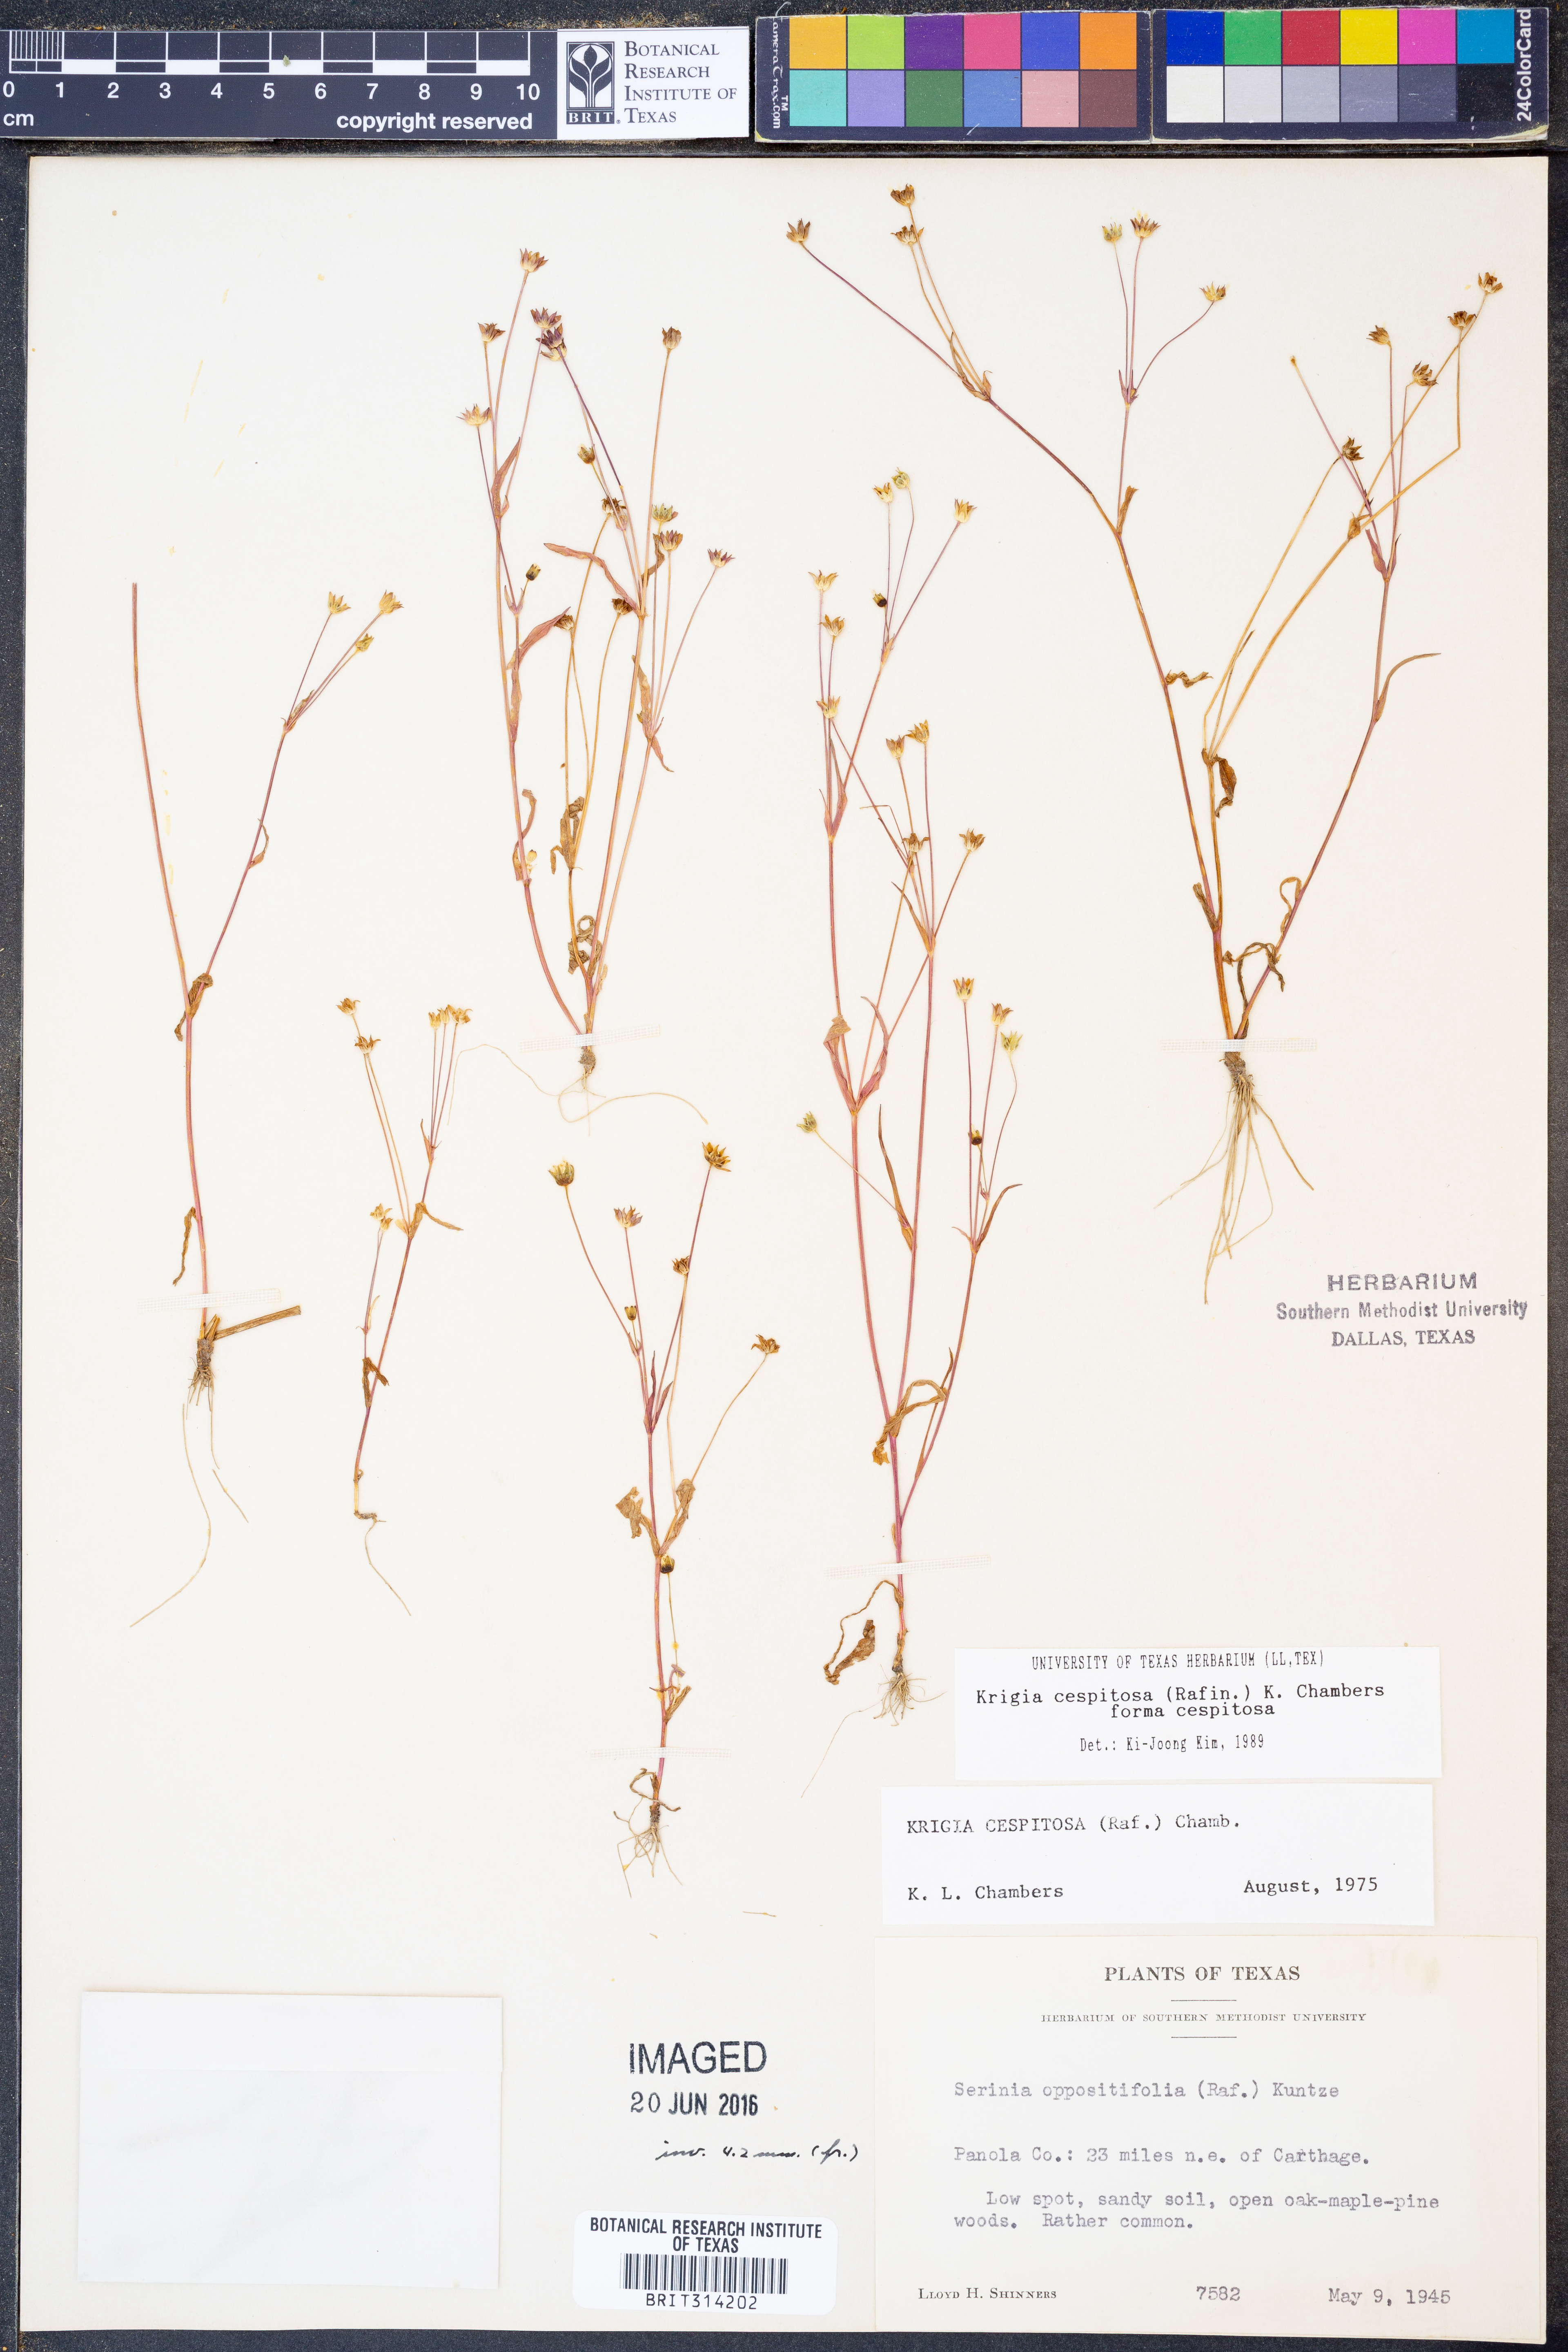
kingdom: Plantae
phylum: Tracheophyta
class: Magnoliopsida
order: Asterales
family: Asteraceae
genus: Krigia
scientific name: Krigia cespitosa
